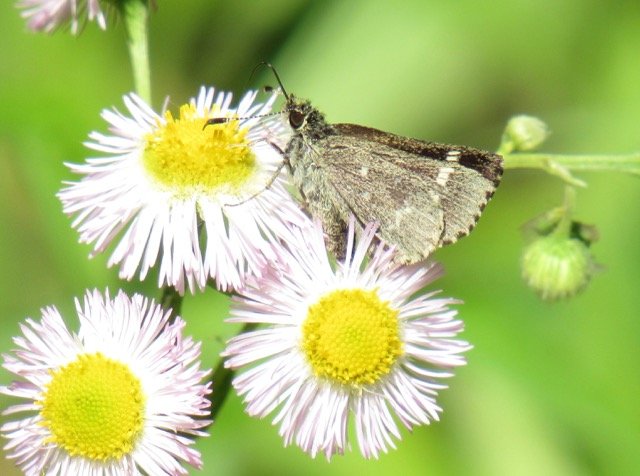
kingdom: Animalia
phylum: Arthropoda
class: Insecta
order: Lepidoptera
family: Hesperiidae
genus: Mastor
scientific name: Mastor hegon
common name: Pepper and Salt Skipper
